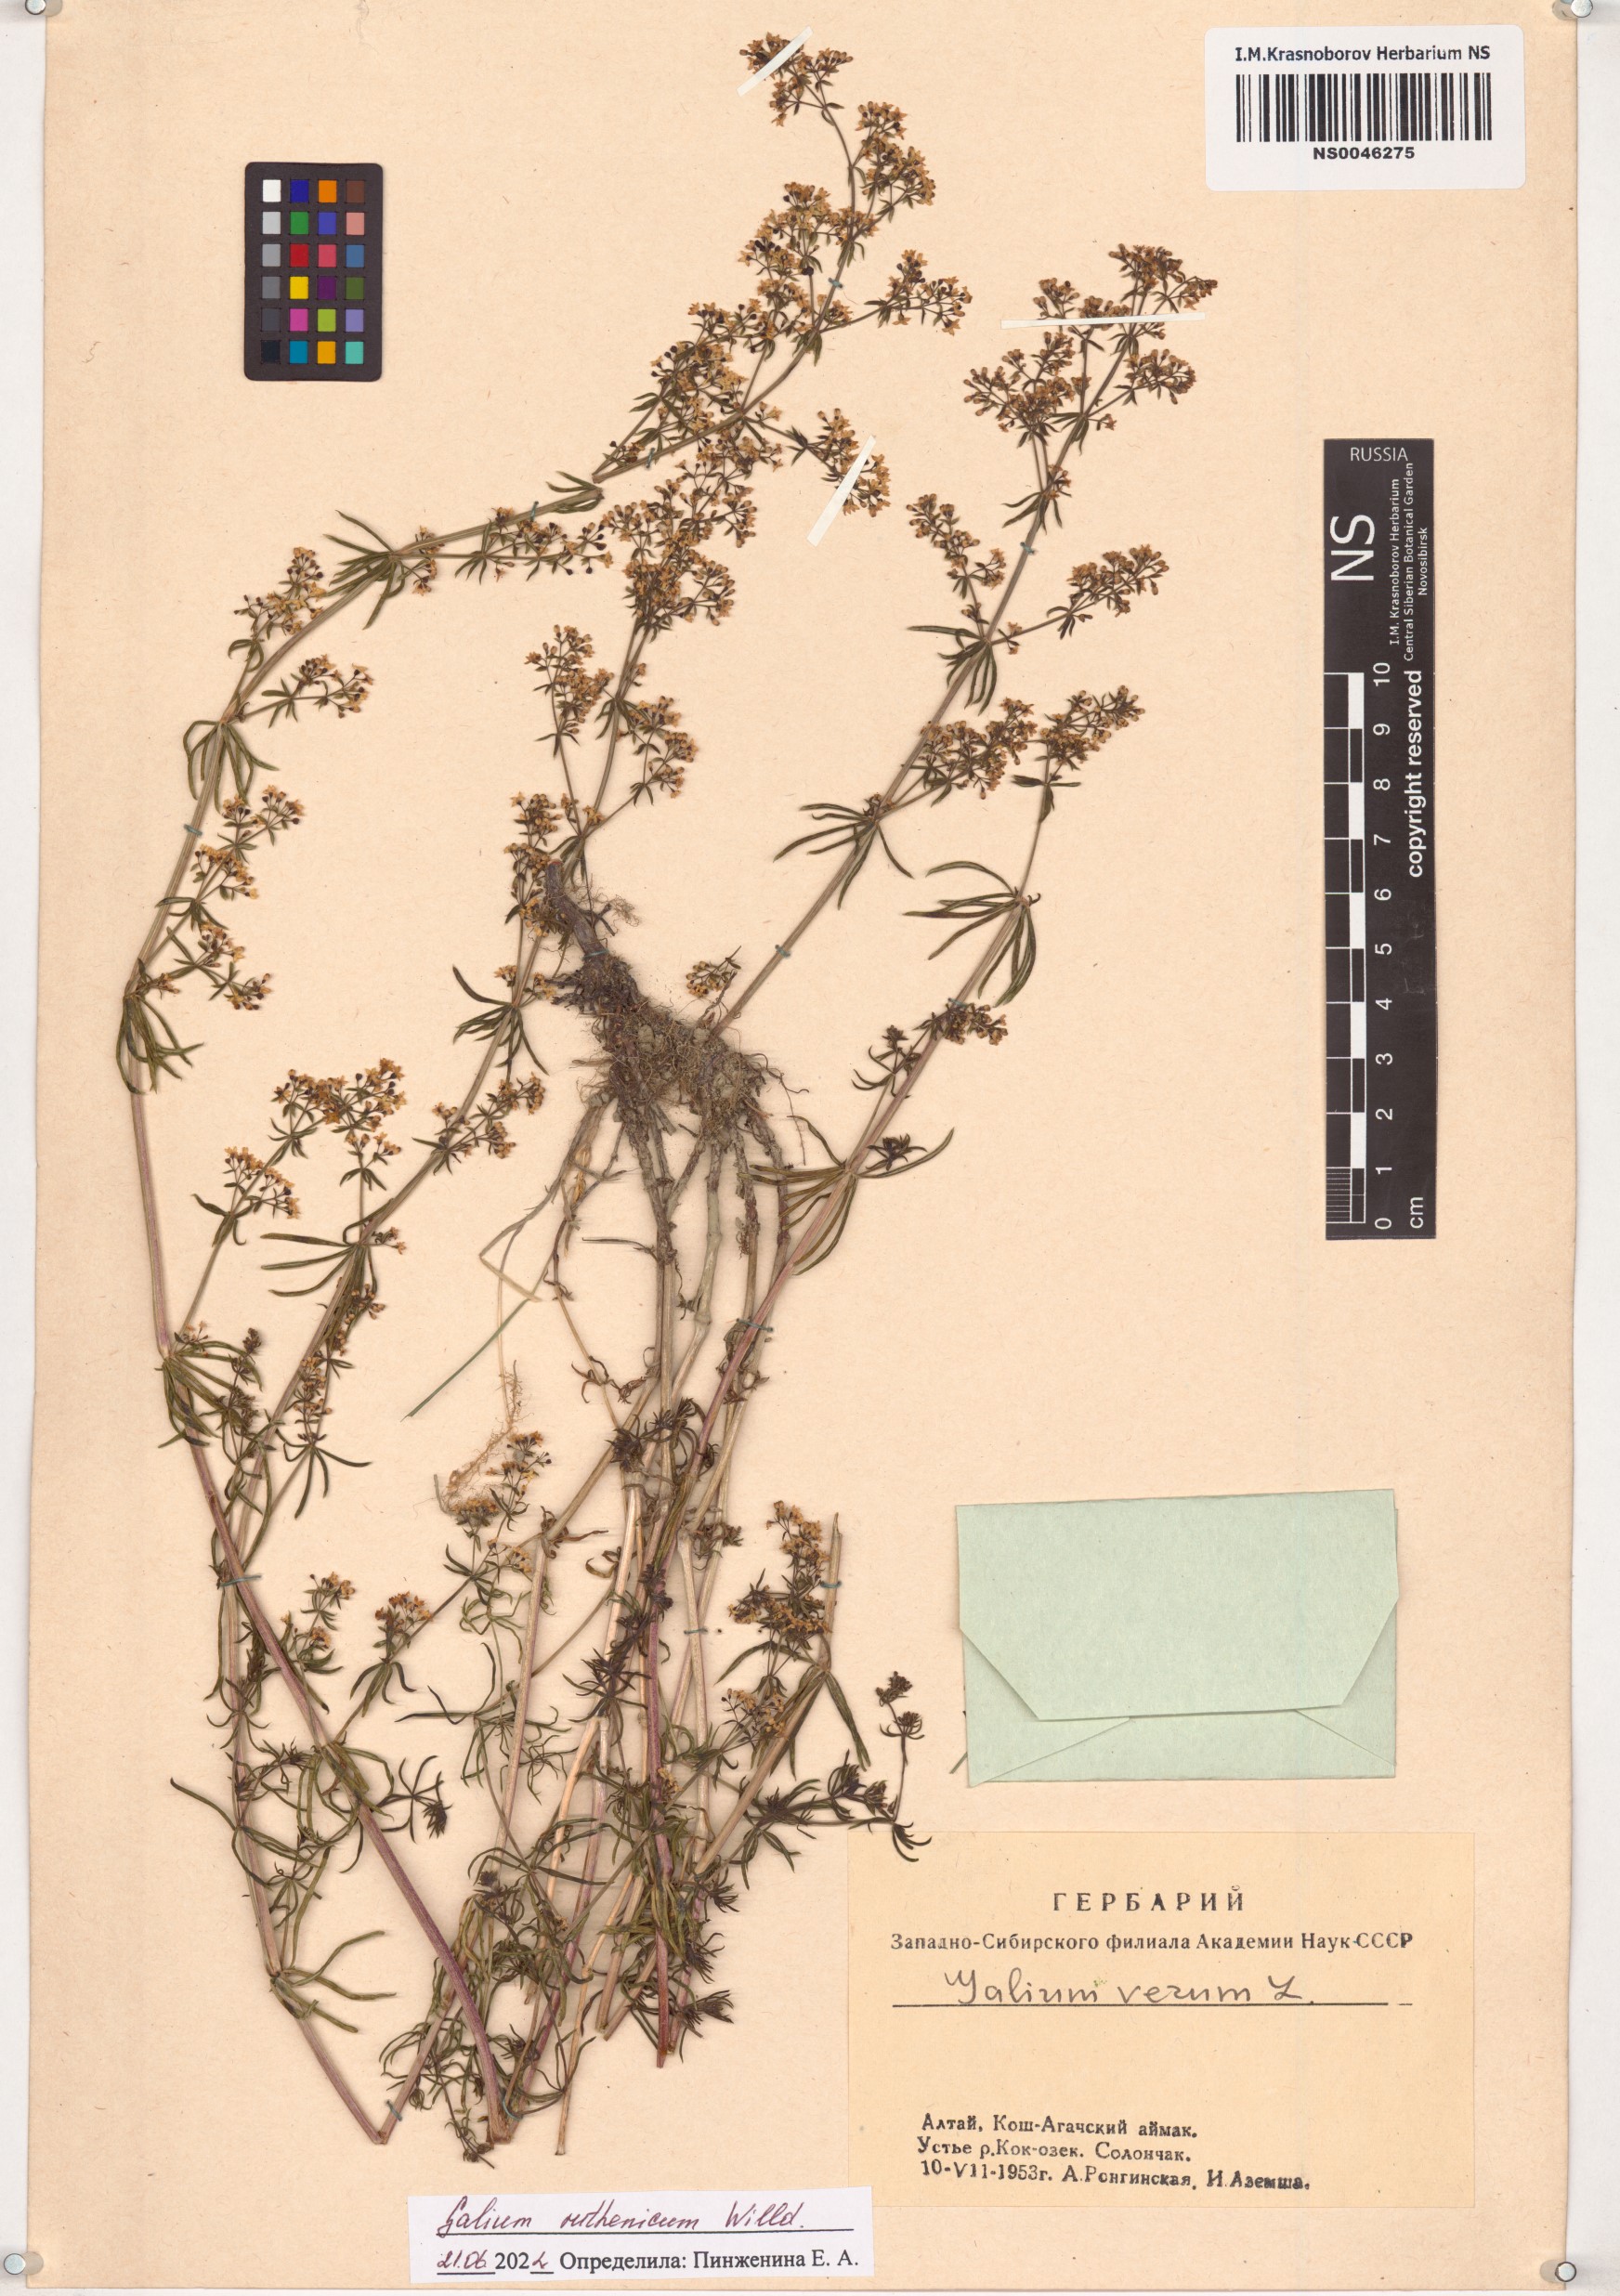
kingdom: Plantae
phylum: Tracheophyta
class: Magnoliopsida
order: Gentianales
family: Rubiaceae
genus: Galium
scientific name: Galium verum
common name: Lady's bedstraw
